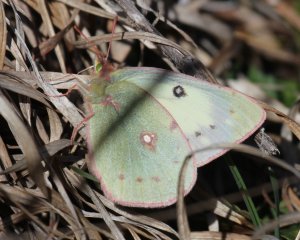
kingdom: Animalia
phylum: Arthropoda
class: Insecta
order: Lepidoptera
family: Pieridae
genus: Colias
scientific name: Colias eurytheme
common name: Orange Sulphur
